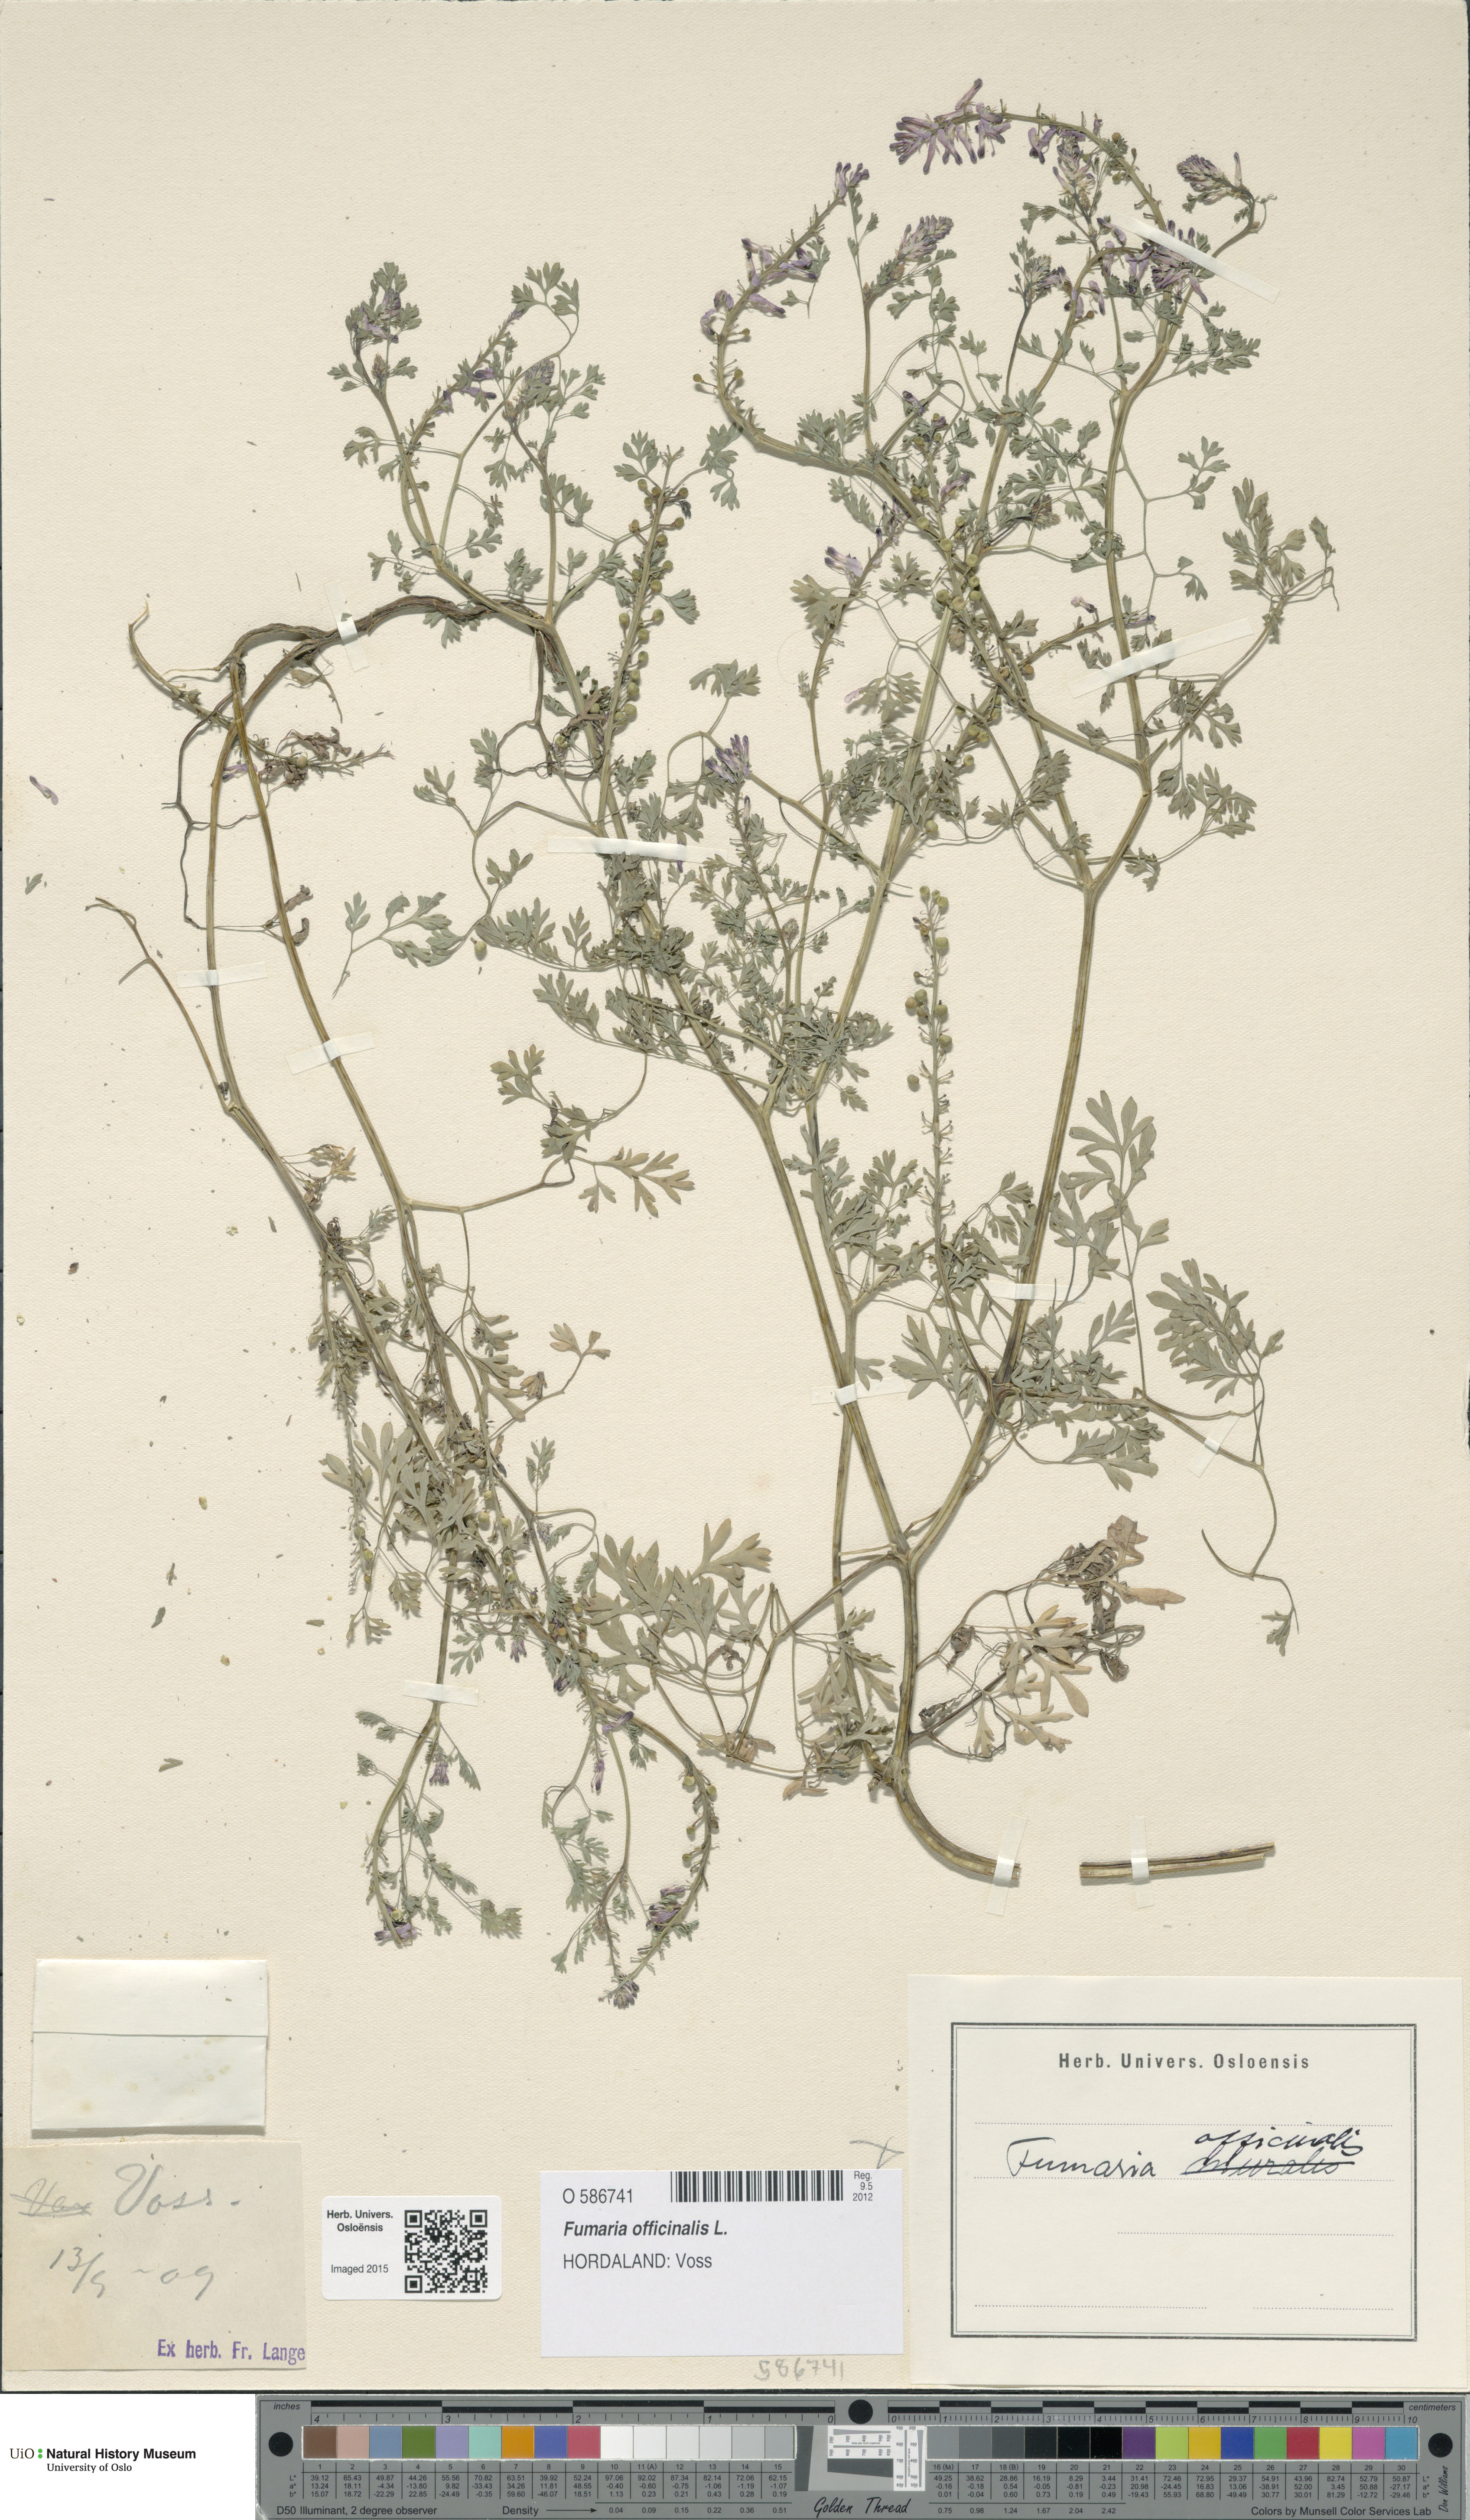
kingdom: Plantae
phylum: Tracheophyta
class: Magnoliopsida
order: Ranunculales
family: Papaveraceae
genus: Fumaria
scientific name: Fumaria officinalis
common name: Common fumitory
